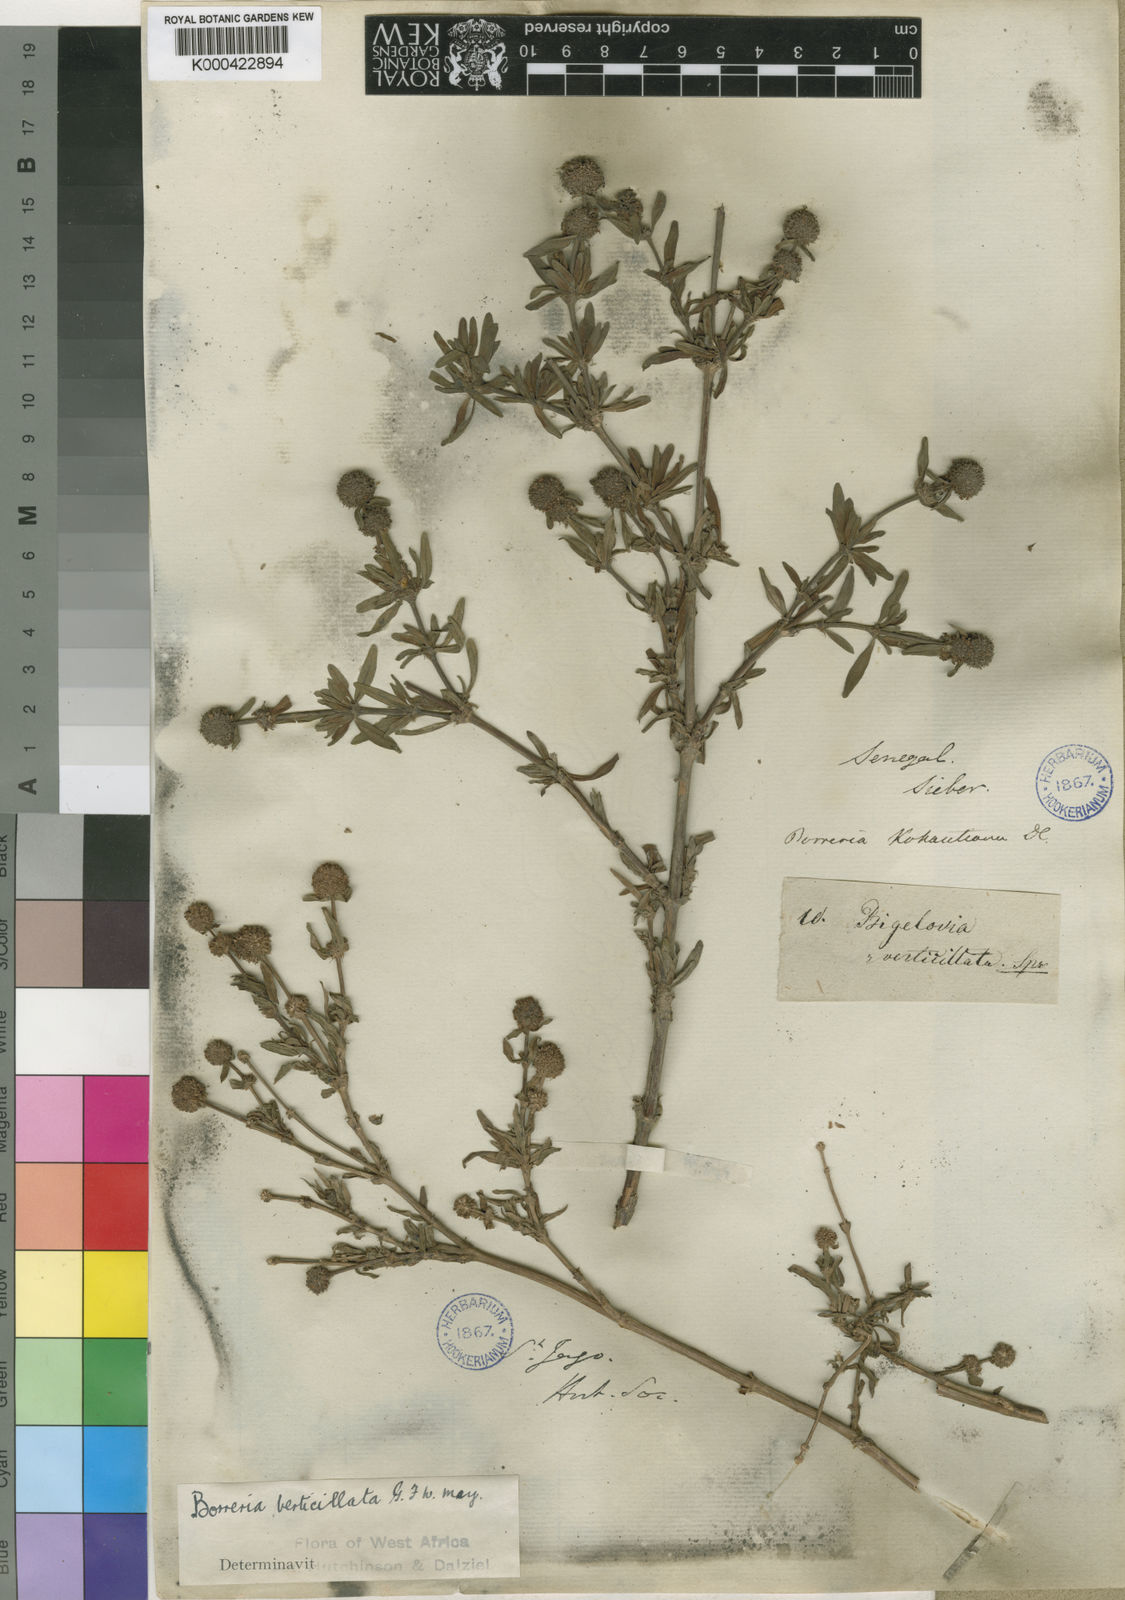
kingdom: Plantae
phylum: Tracheophyta
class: Magnoliopsida
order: Gentianales
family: Rubiaceae
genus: Spermacoce
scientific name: Spermacoce verticillata
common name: Shrubby false buttonweed
